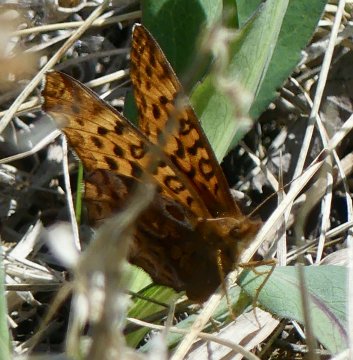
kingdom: Animalia
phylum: Arthropoda
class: Insecta
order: Lepidoptera
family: Nymphalidae
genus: Clossiana
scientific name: Clossiana toddi
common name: Meadow Fritillary
